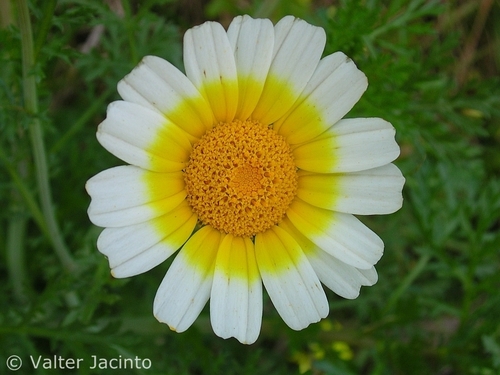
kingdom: Plantae
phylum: Tracheophyta
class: Magnoliopsida
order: Asterales
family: Asteraceae
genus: Glebionis
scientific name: Glebionis coronaria
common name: Crowndaisy
